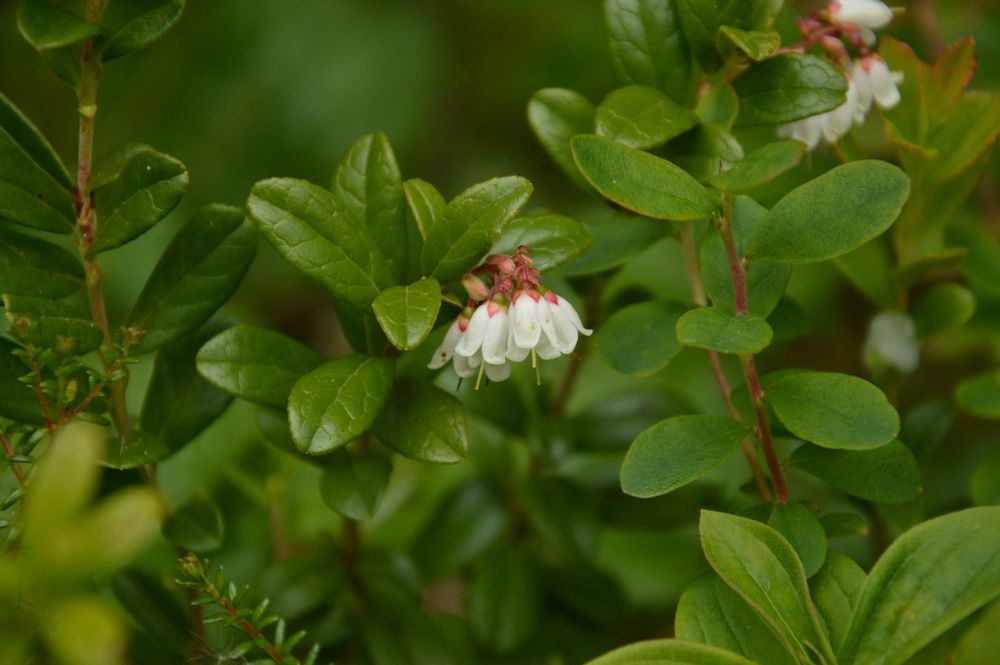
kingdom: Plantae
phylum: Tracheophyta
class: Magnoliopsida
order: Ericales
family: Ericaceae
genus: Vaccinium
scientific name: Vaccinium vitis-idaea
